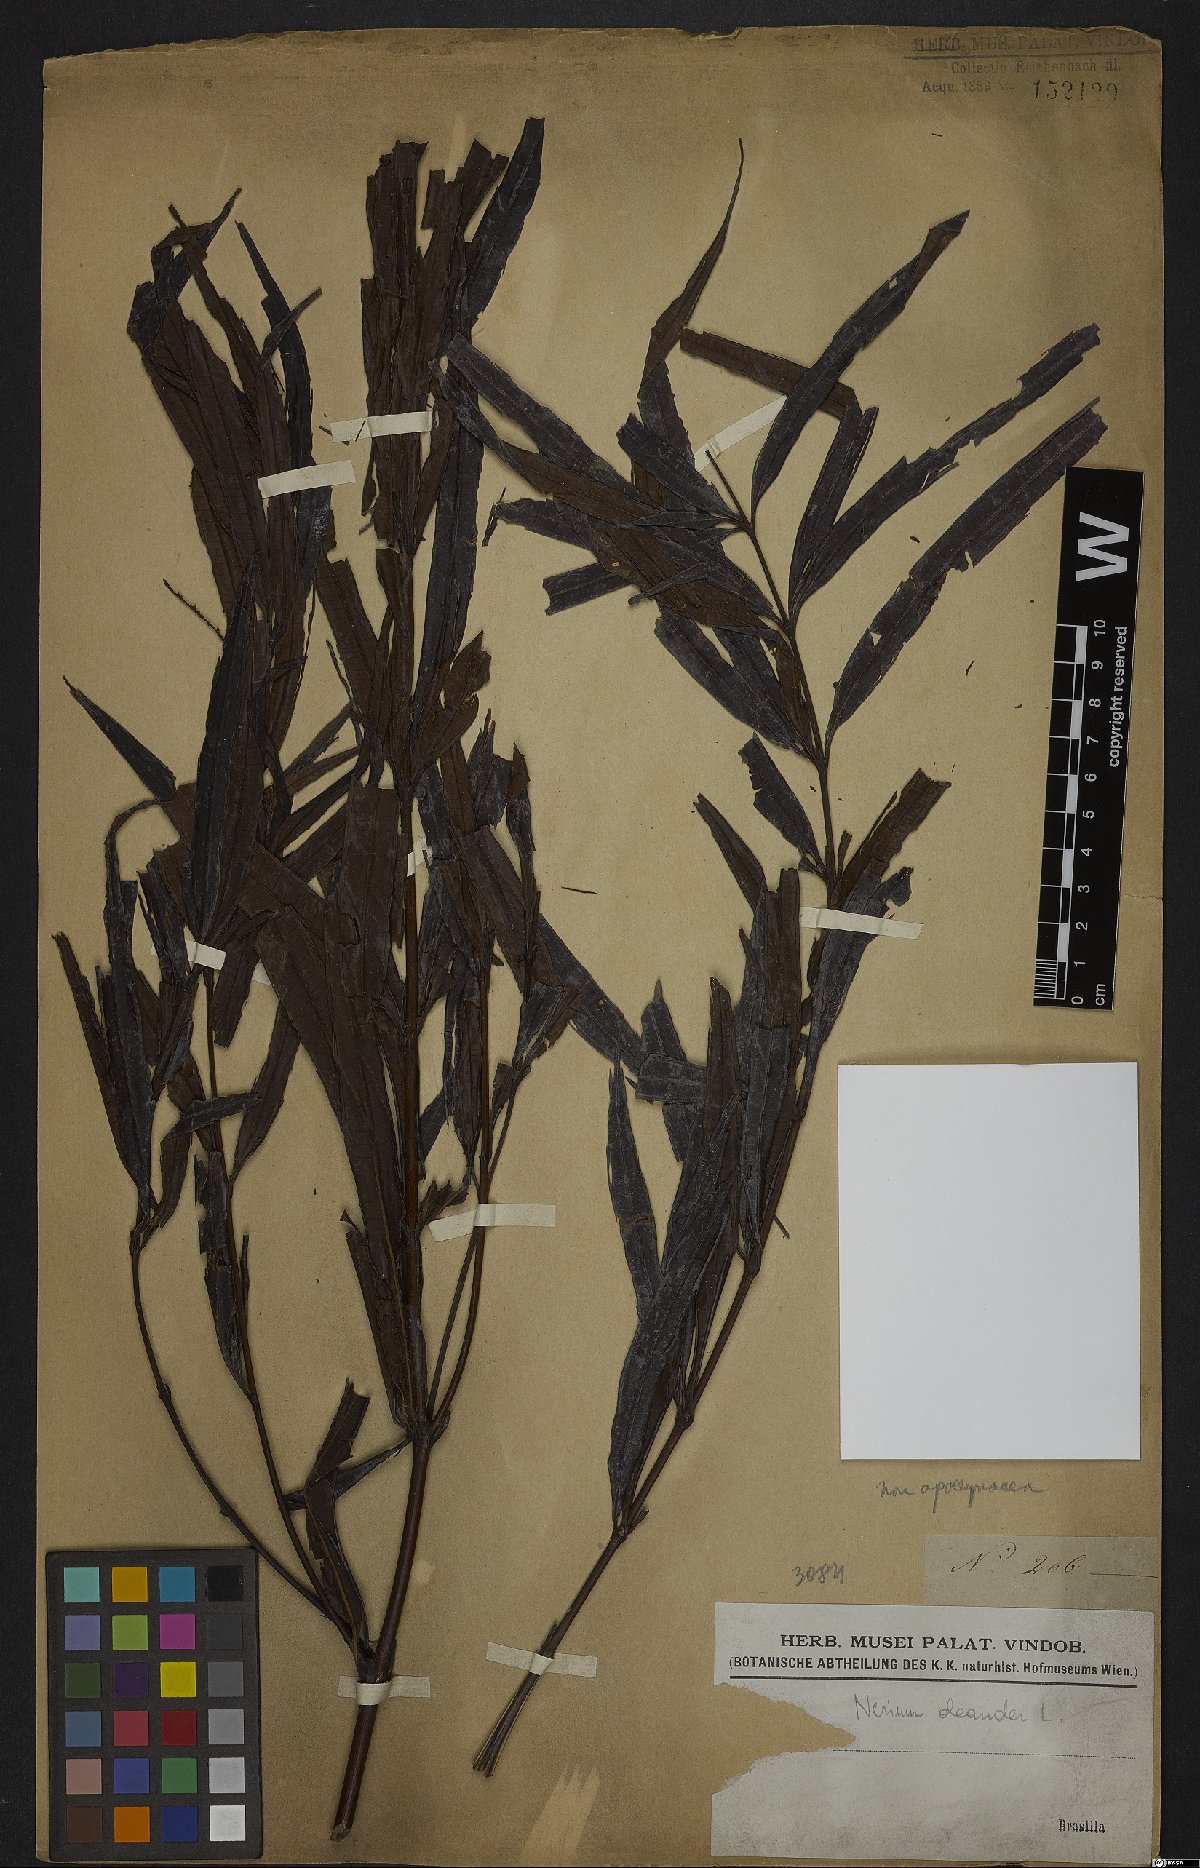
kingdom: Plantae
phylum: Tracheophyta
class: Magnoliopsida
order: Gentianales
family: Apocynaceae
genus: Nerium
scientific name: Nerium oleander
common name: Oleander
